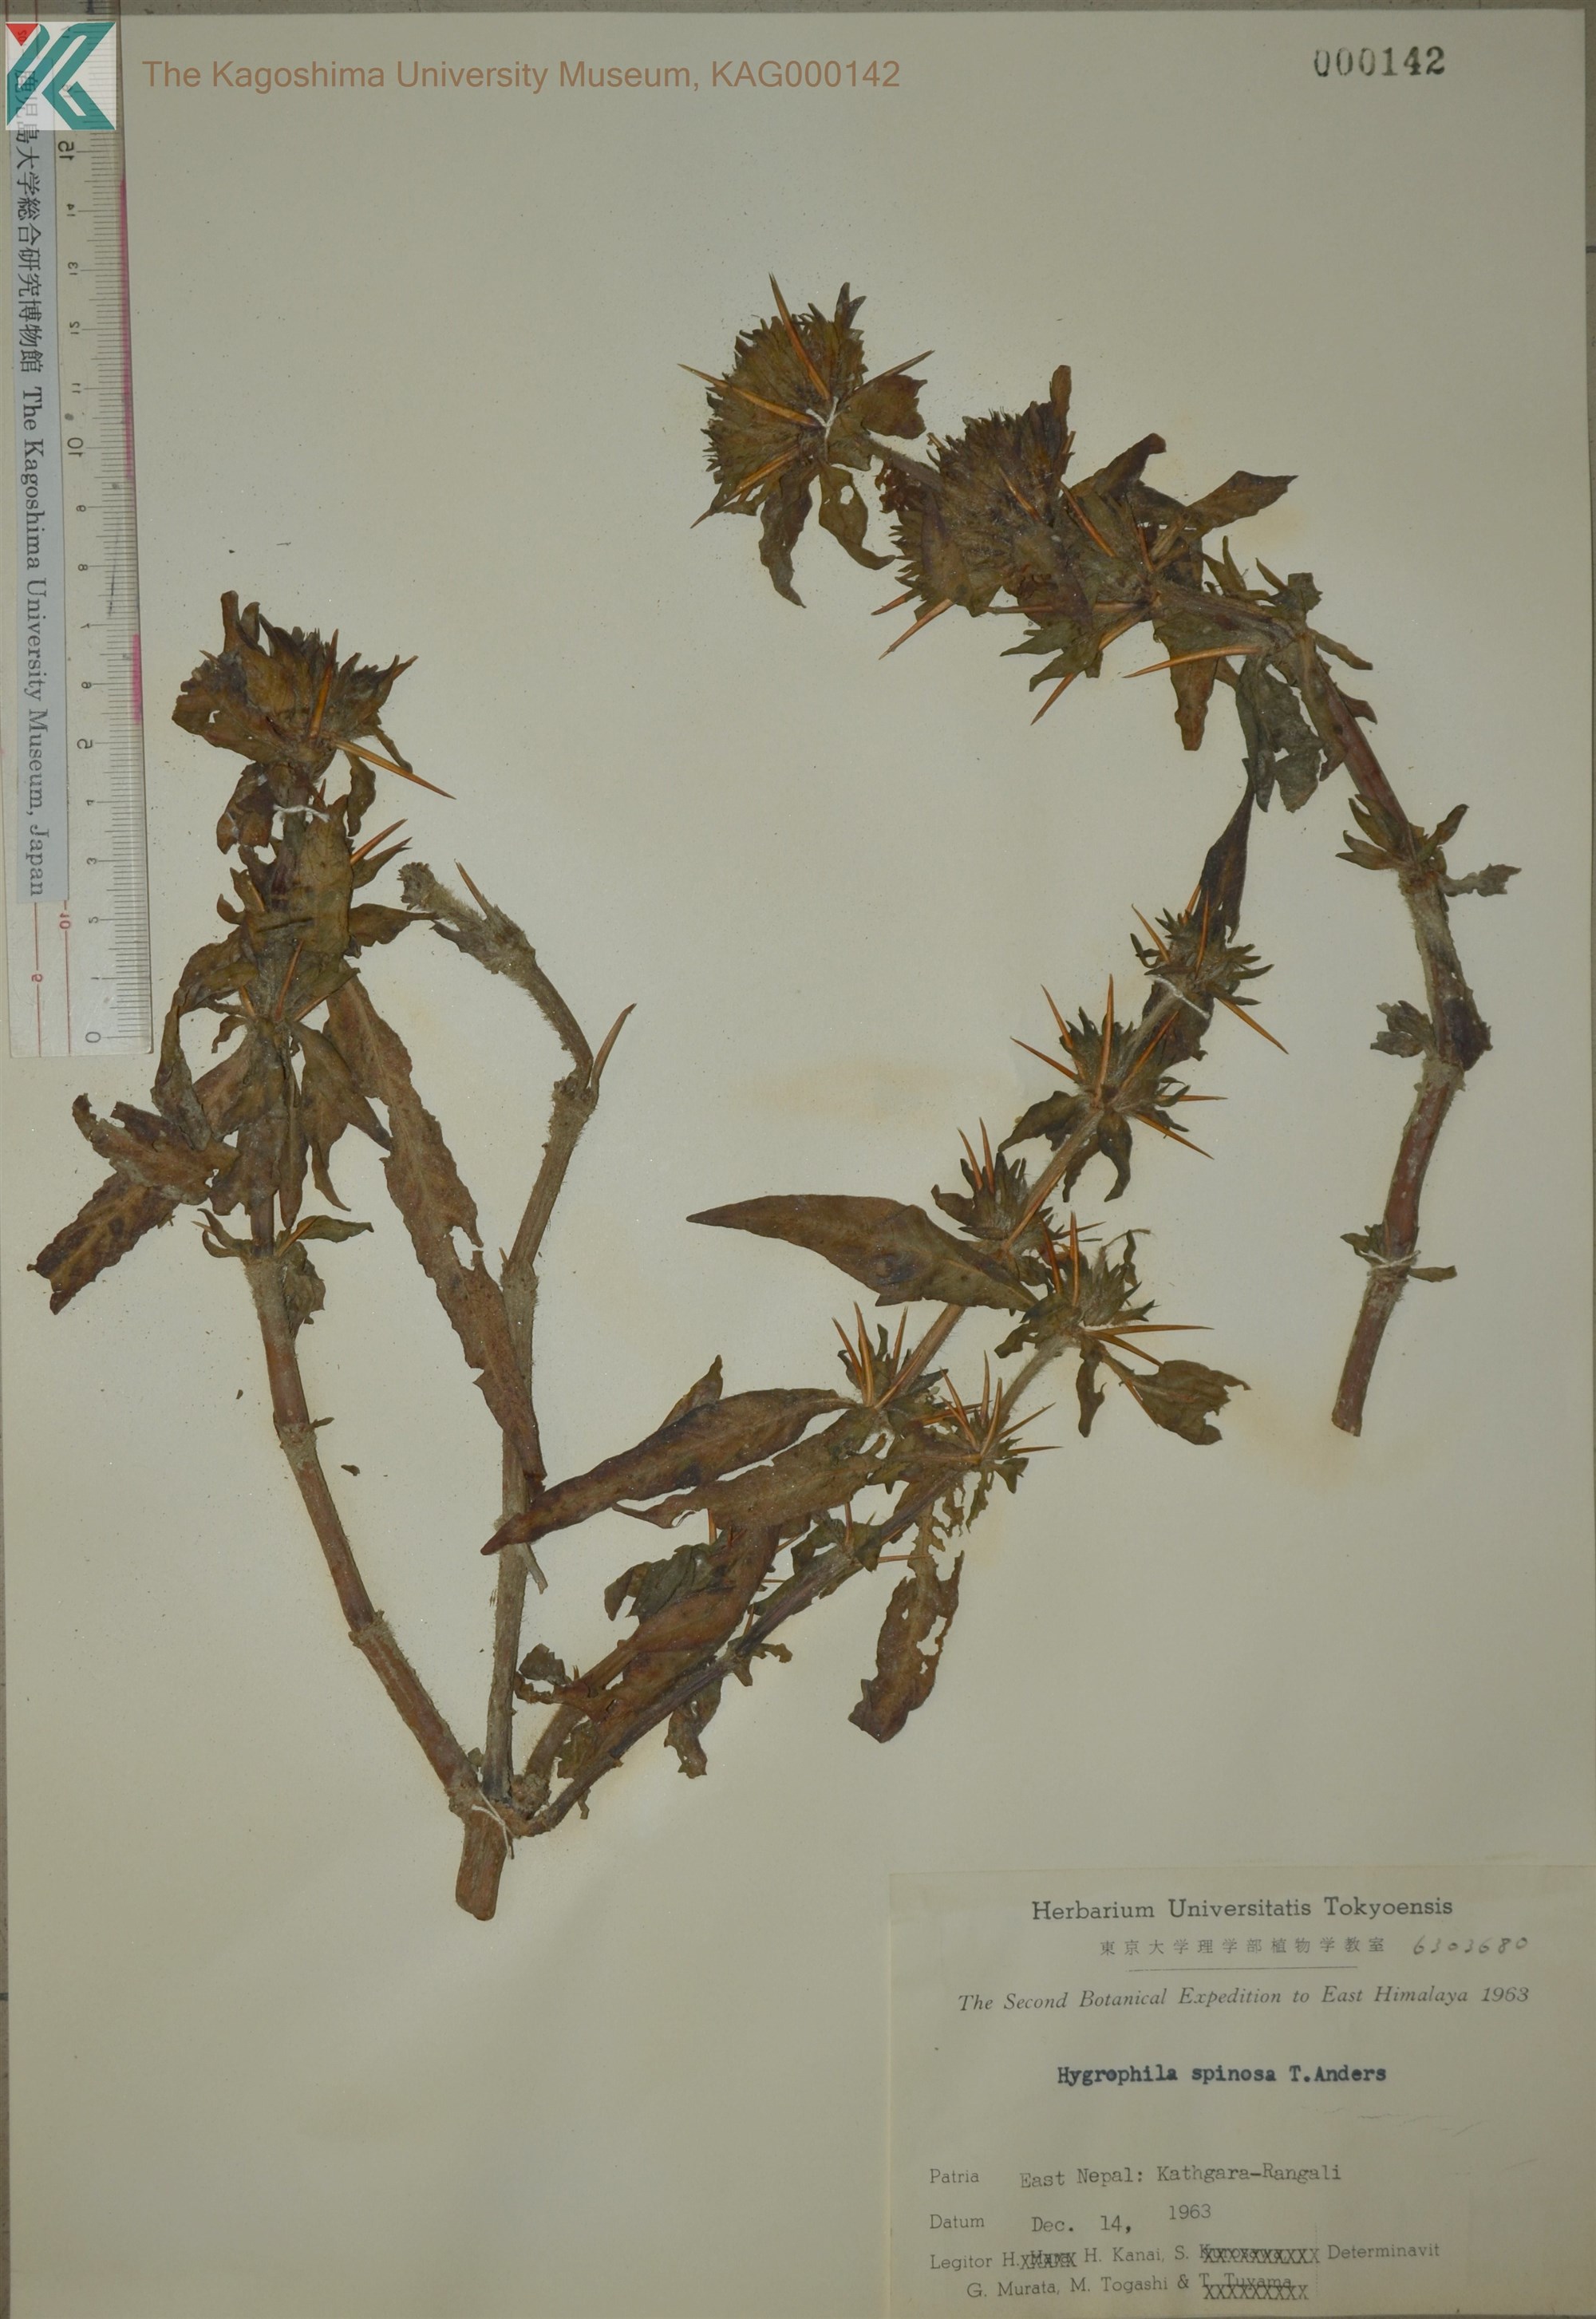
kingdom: Plantae
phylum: Tracheophyta
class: Magnoliopsida
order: Lamiales
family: Acanthaceae
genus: Hygrophila
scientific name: Hygrophila auriculata
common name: Hygrophila
